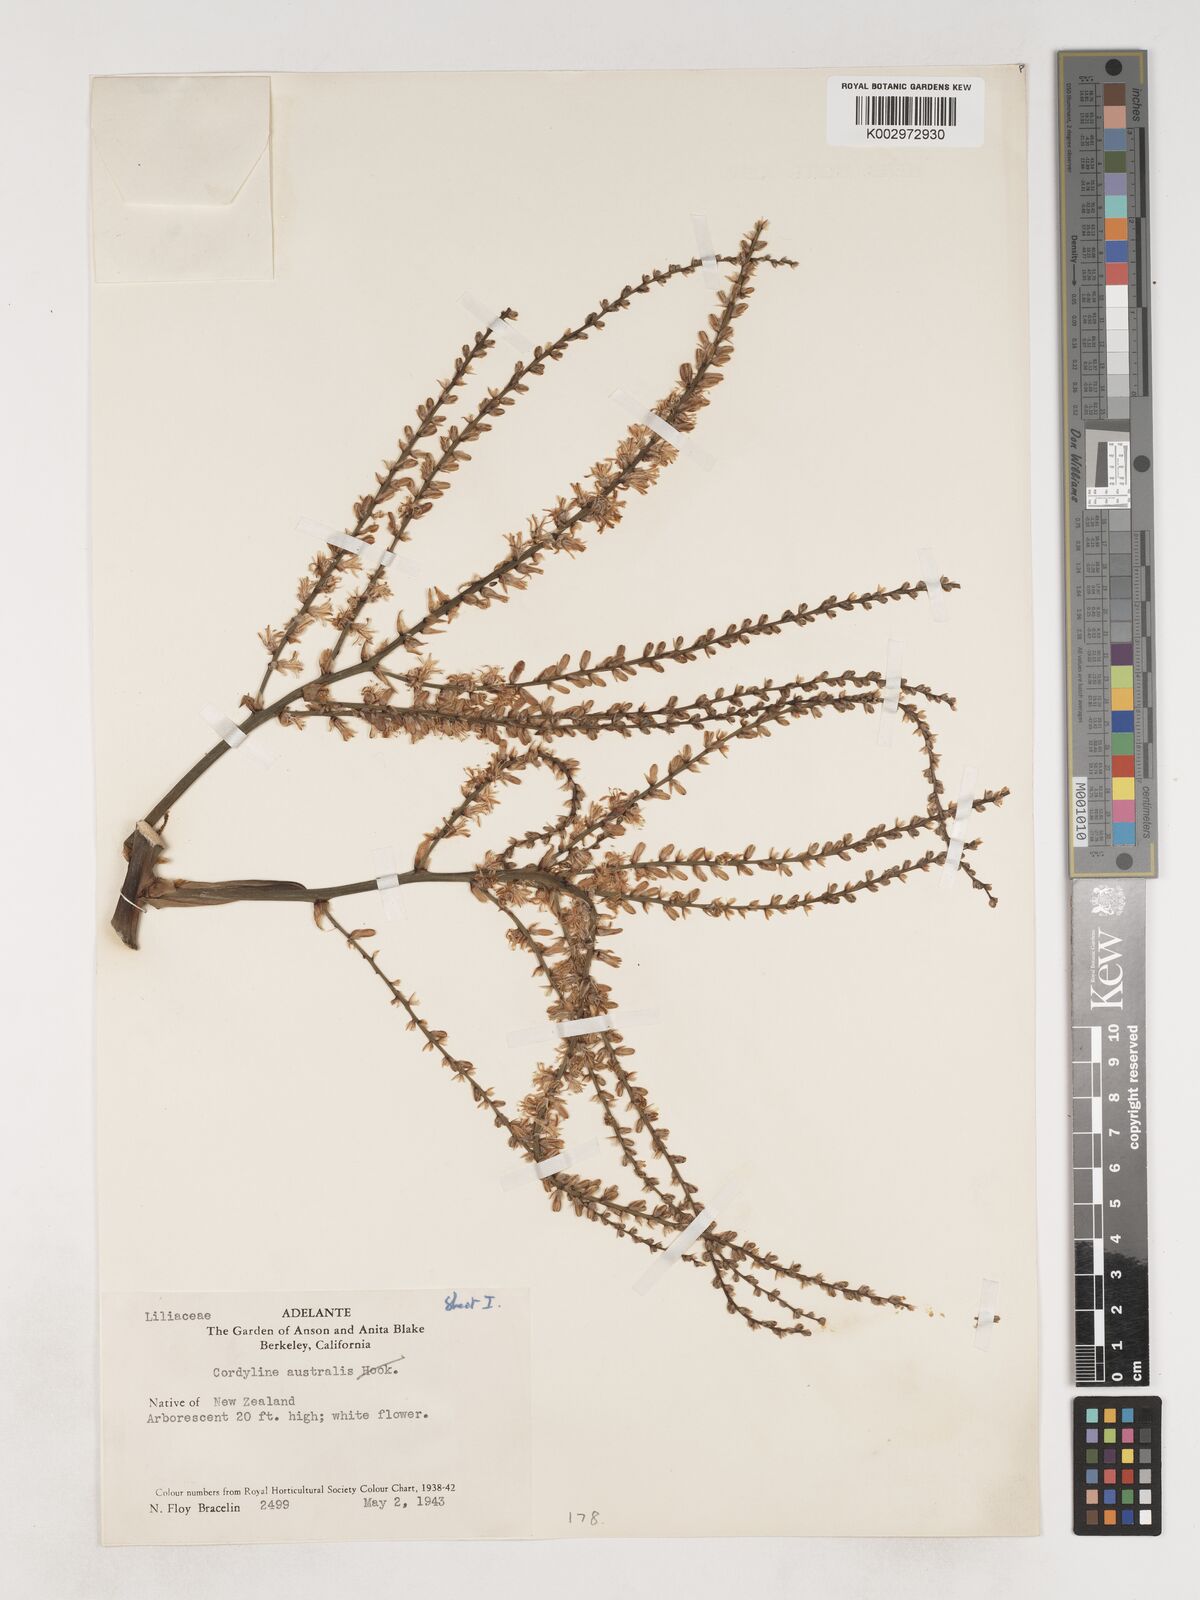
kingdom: Plantae
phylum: Tracheophyta
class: Liliopsida
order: Asparagales
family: Asparagaceae
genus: Cordyline
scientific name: Cordyline australis
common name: Cabbage-palm
